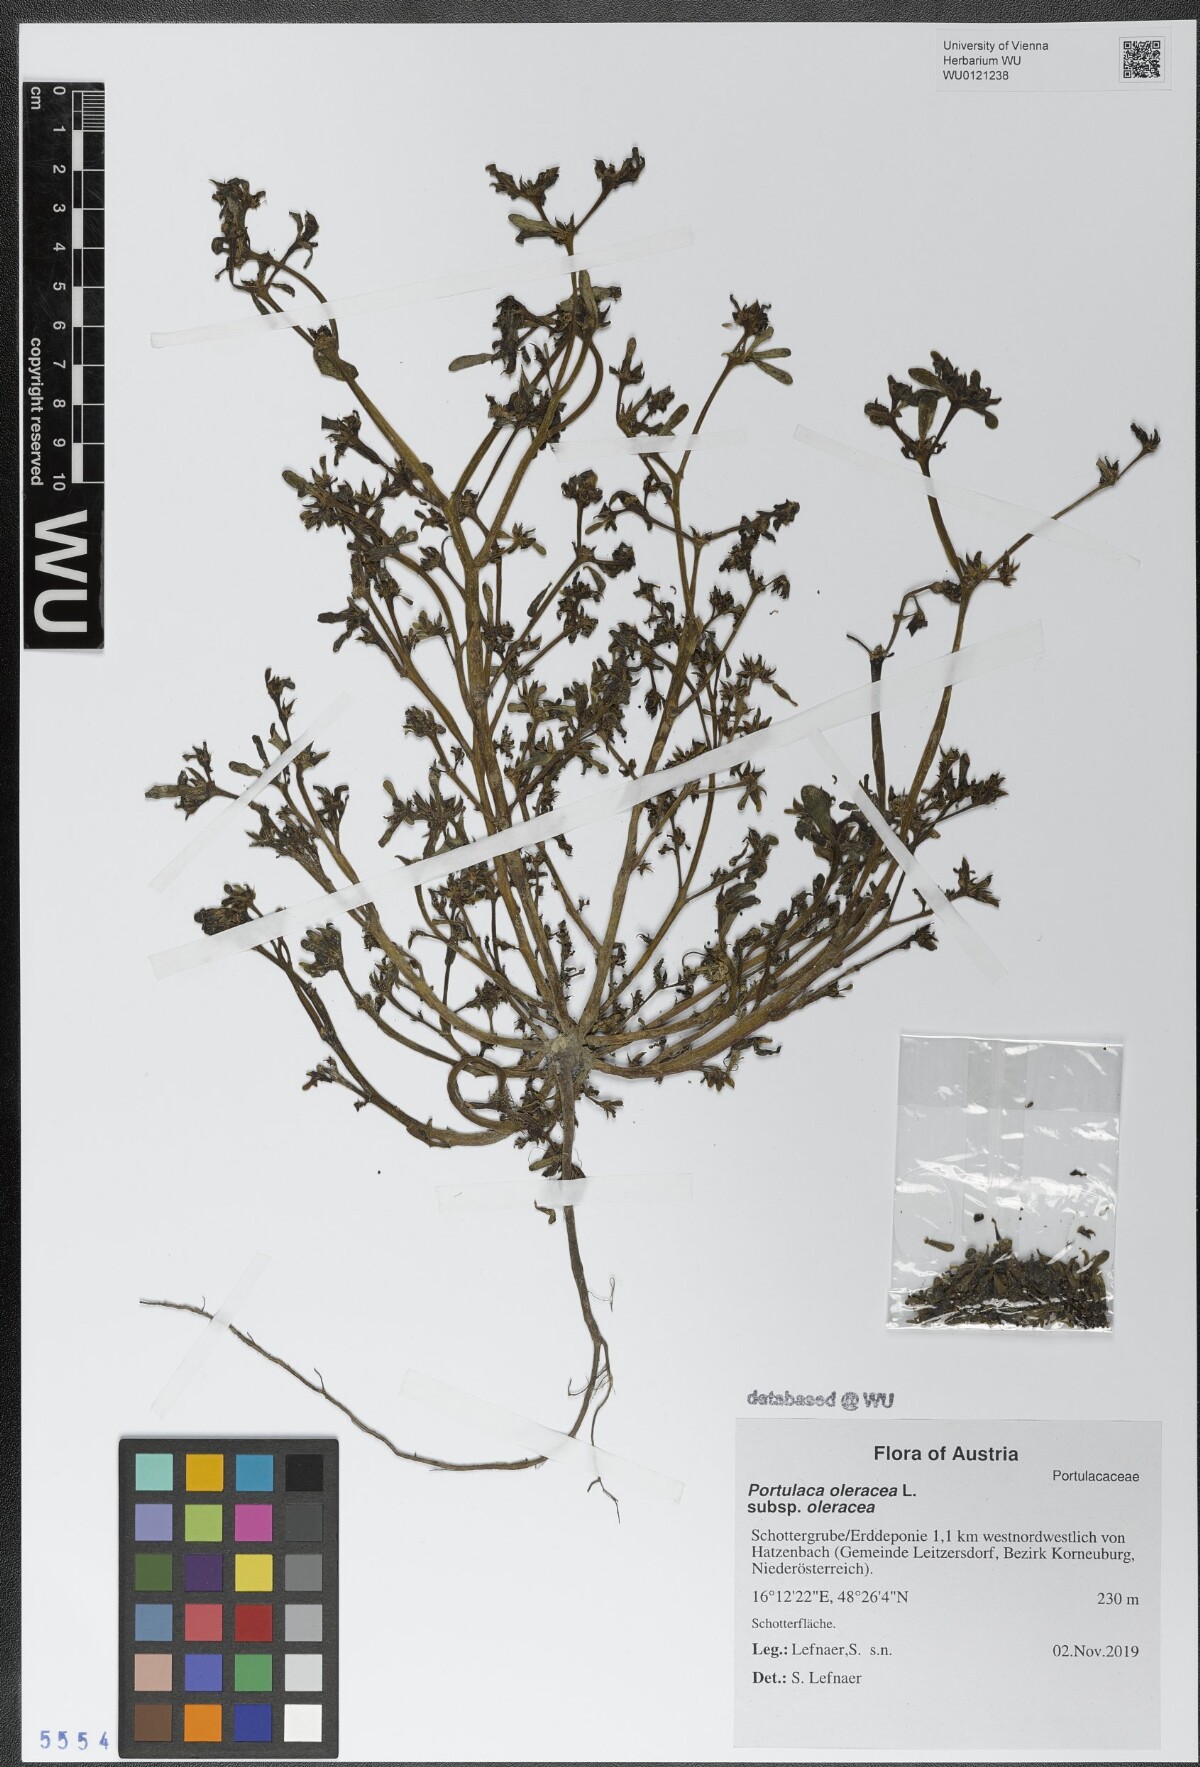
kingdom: Plantae
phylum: Tracheophyta
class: Magnoliopsida
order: Caryophyllales
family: Portulacaceae
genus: Portulaca
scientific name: Portulaca oleracea
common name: Common purslane
